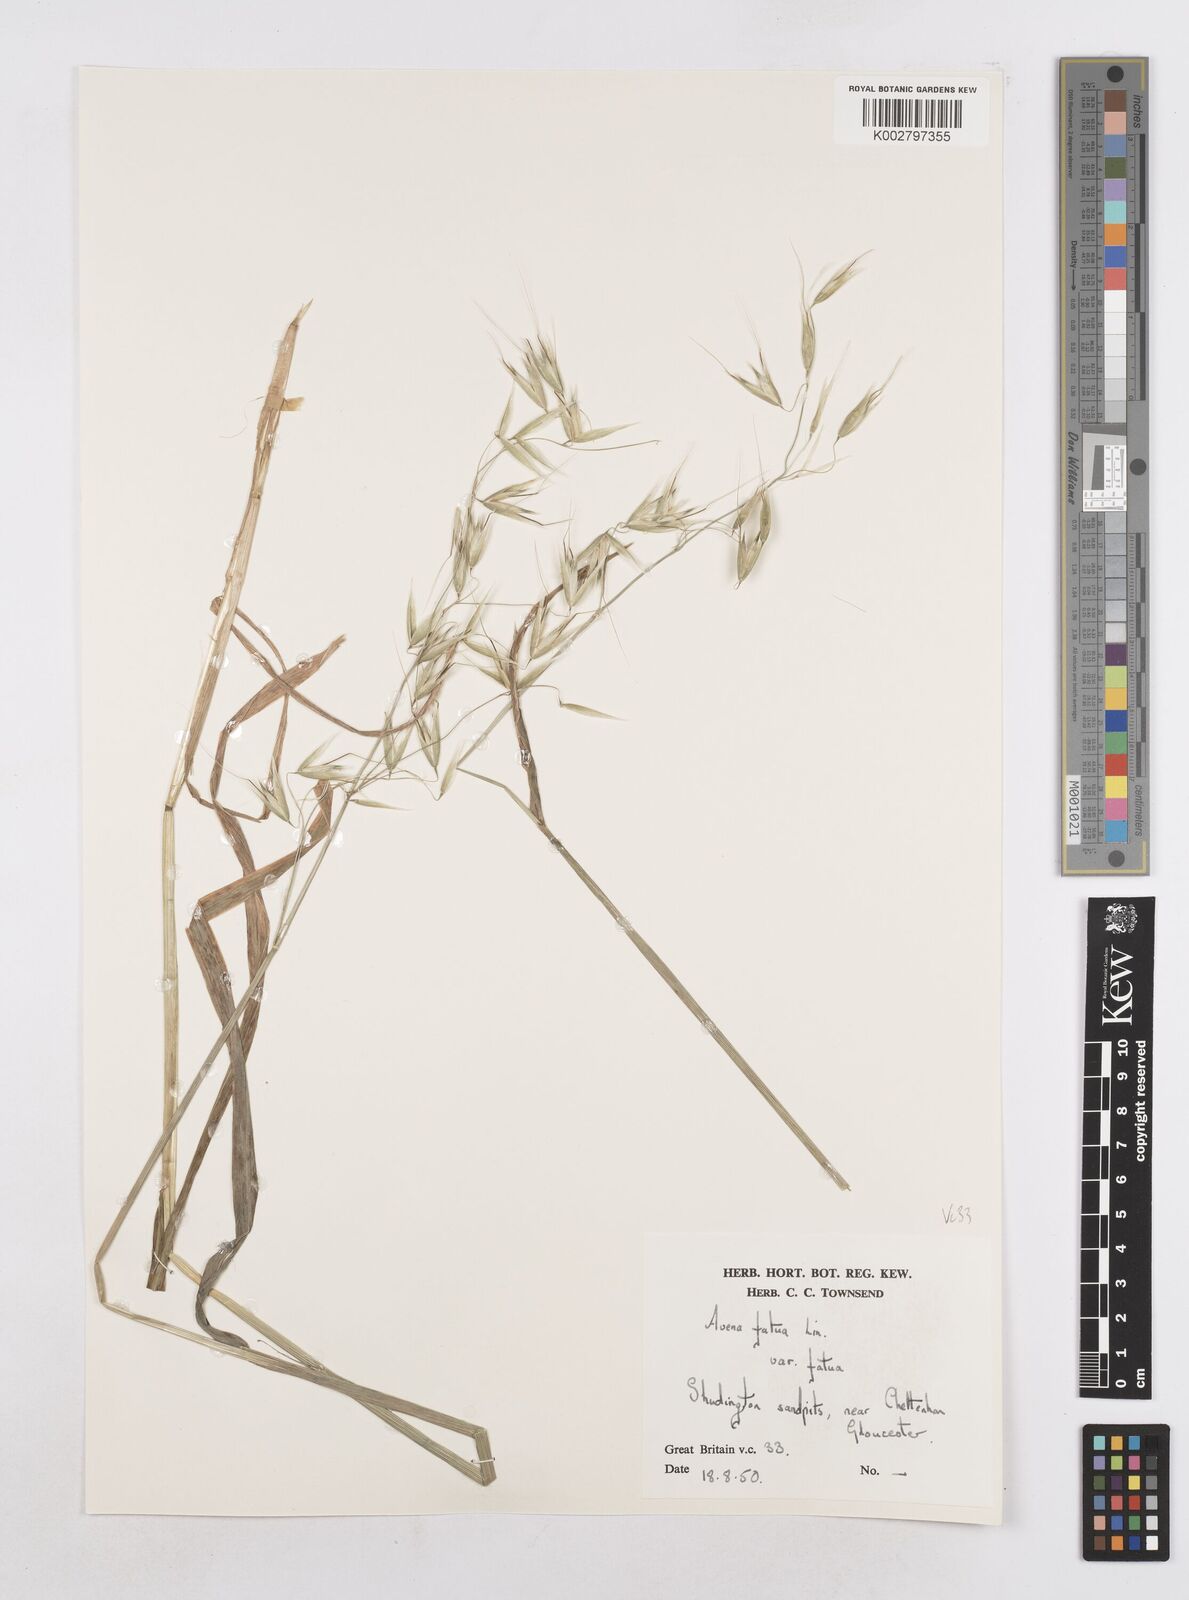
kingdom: Plantae
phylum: Tracheophyta
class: Liliopsida
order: Poales
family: Poaceae
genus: Avena
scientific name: Avena fatua
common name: Wild oat
